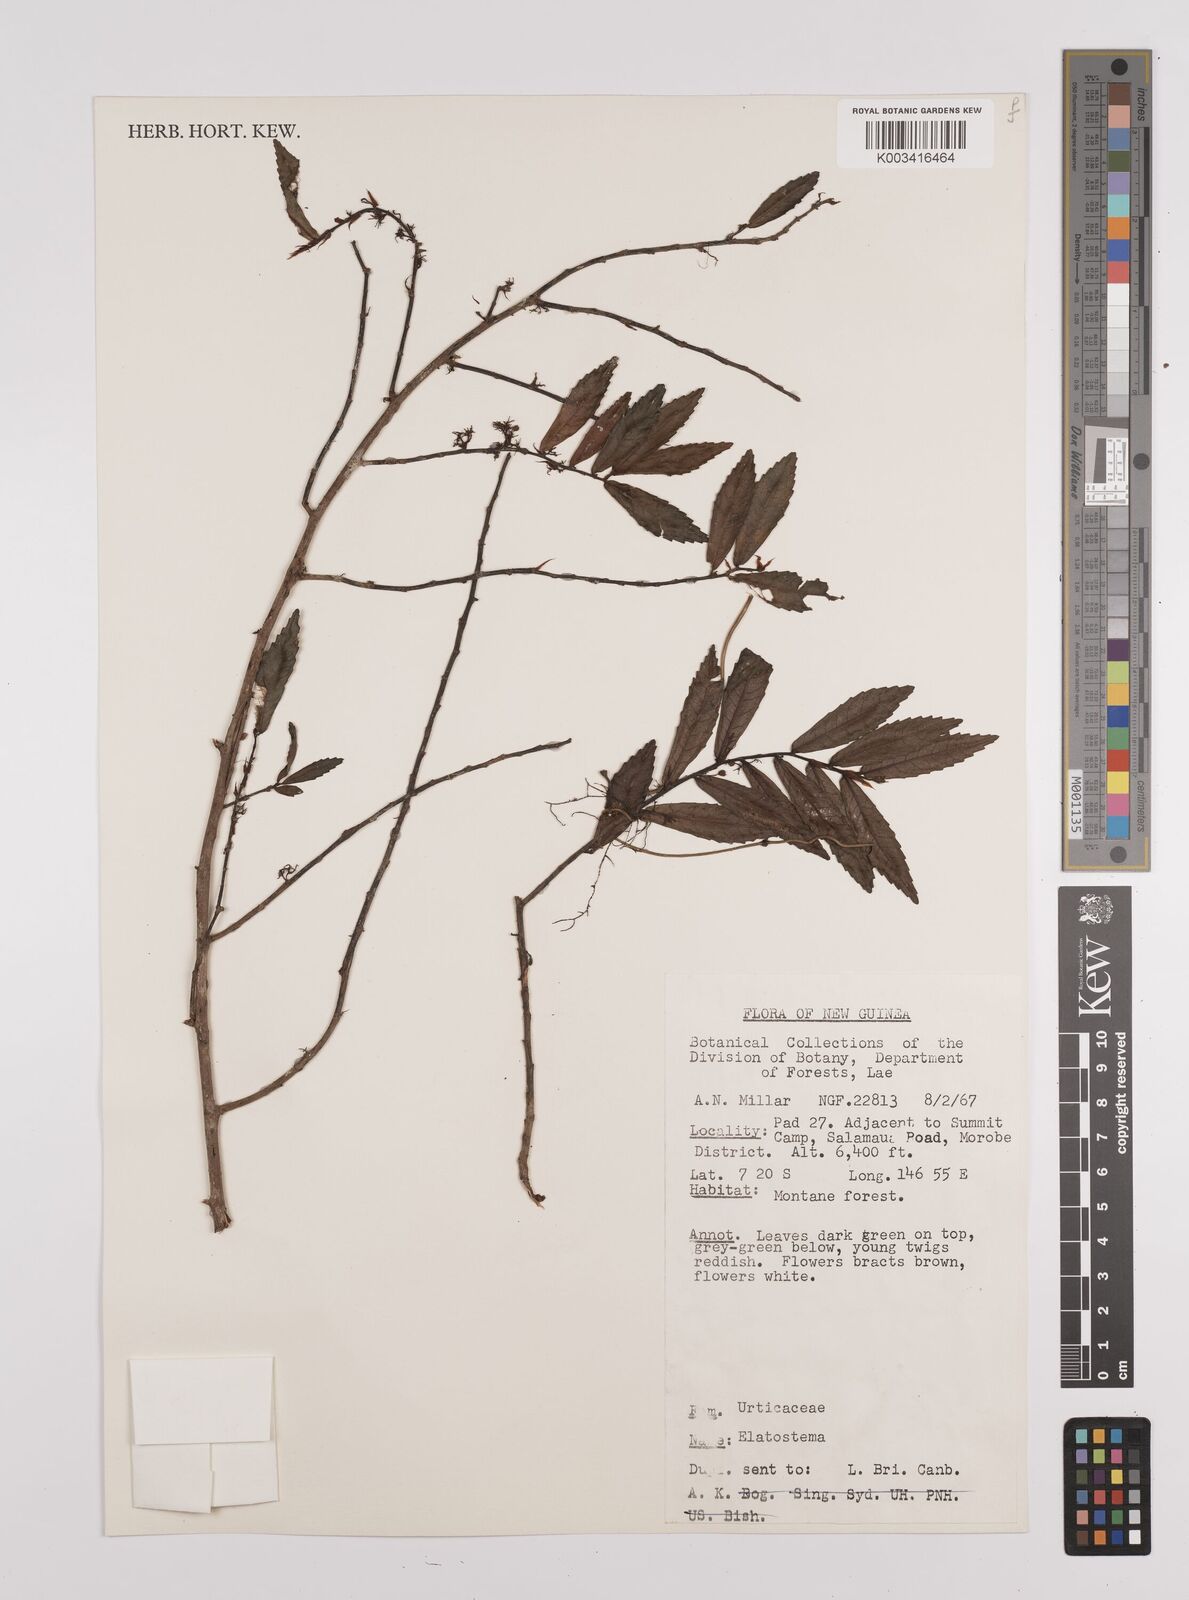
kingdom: Plantae
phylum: Tracheophyta
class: Magnoliopsida
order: Rosales
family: Urticaceae
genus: Elatostema
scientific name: Elatostema
